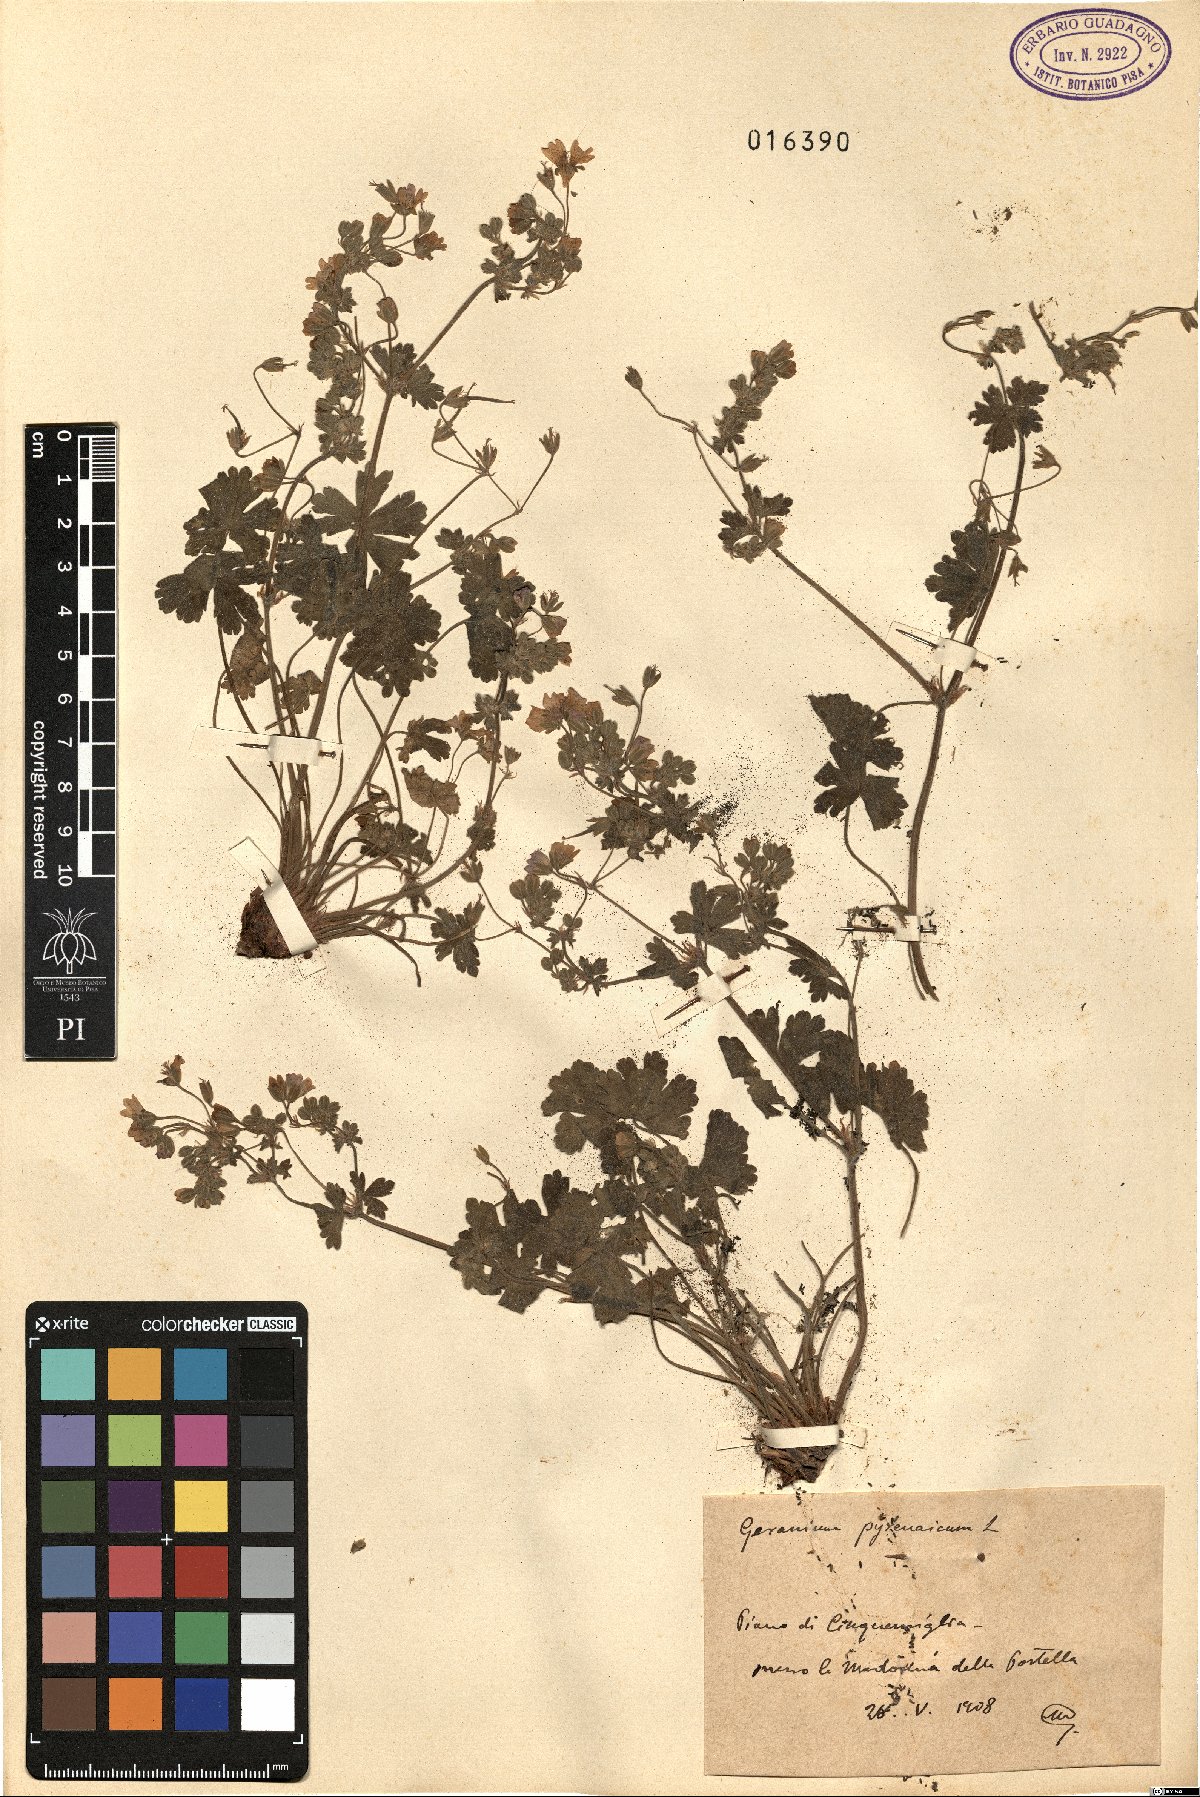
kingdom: Plantae
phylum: Tracheophyta
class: Magnoliopsida
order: Geraniales
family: Geraniaceae
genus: Geranium
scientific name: Geranium pyrenaicum
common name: Hedgerow crane's-bill
